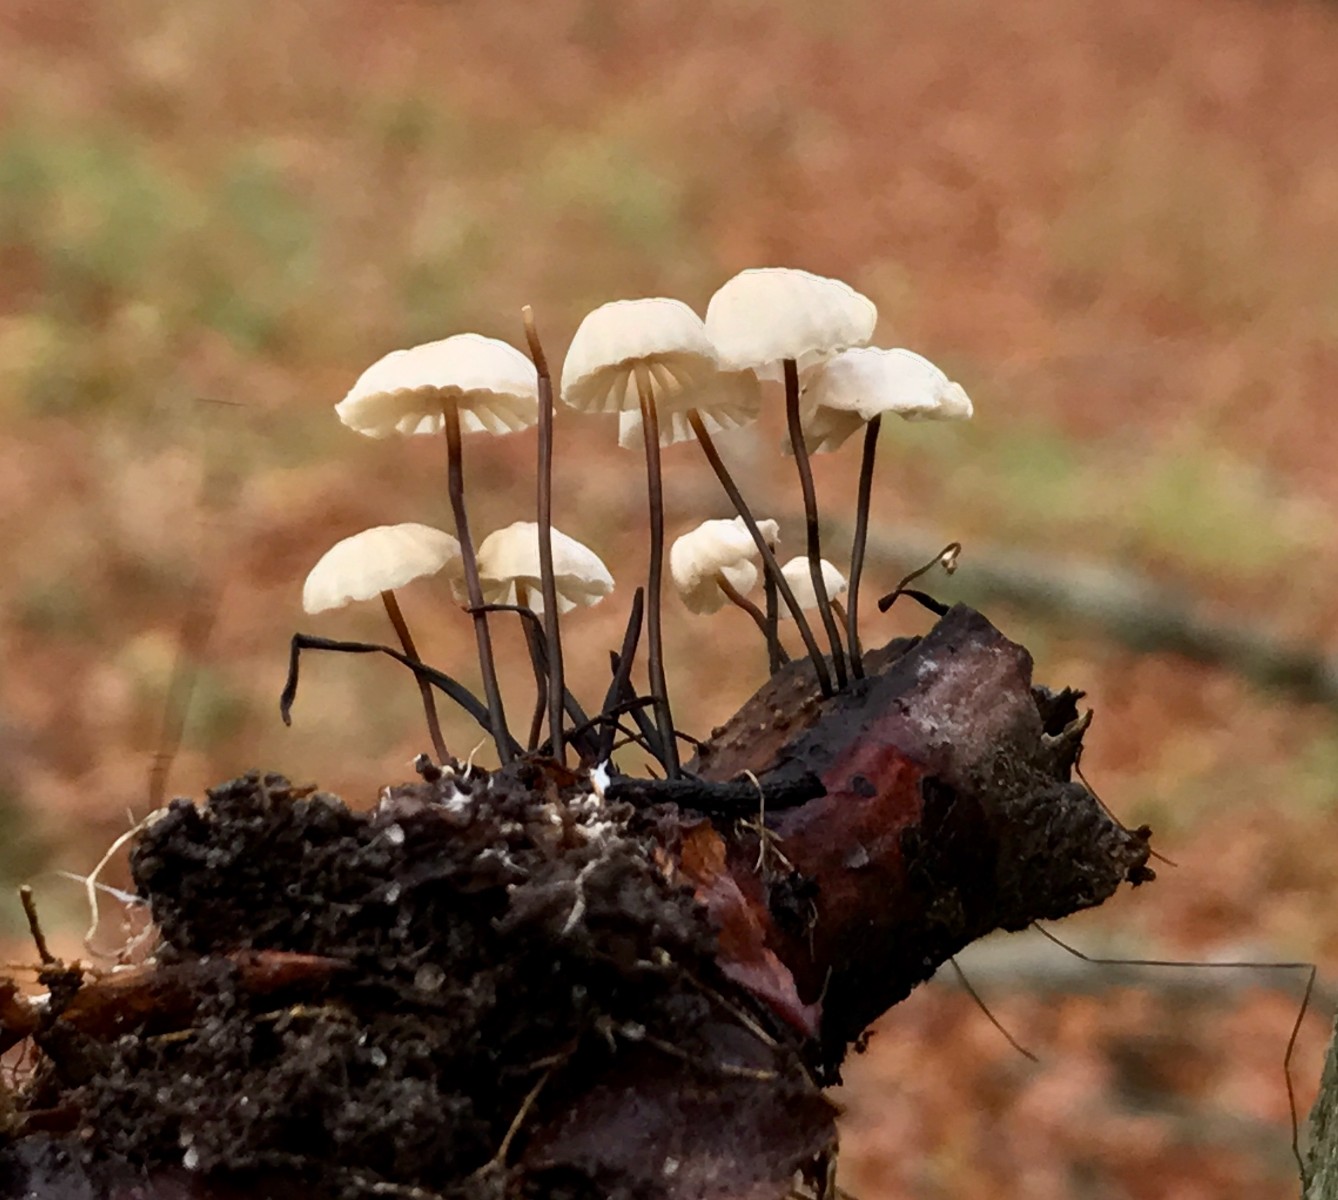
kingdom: Fungi
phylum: Basidiomycota
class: Agaricomycetes
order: Agaricales
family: Marasmiaceae
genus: Marasmius
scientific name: Marasmius rotula
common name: hjul-bruskhat
